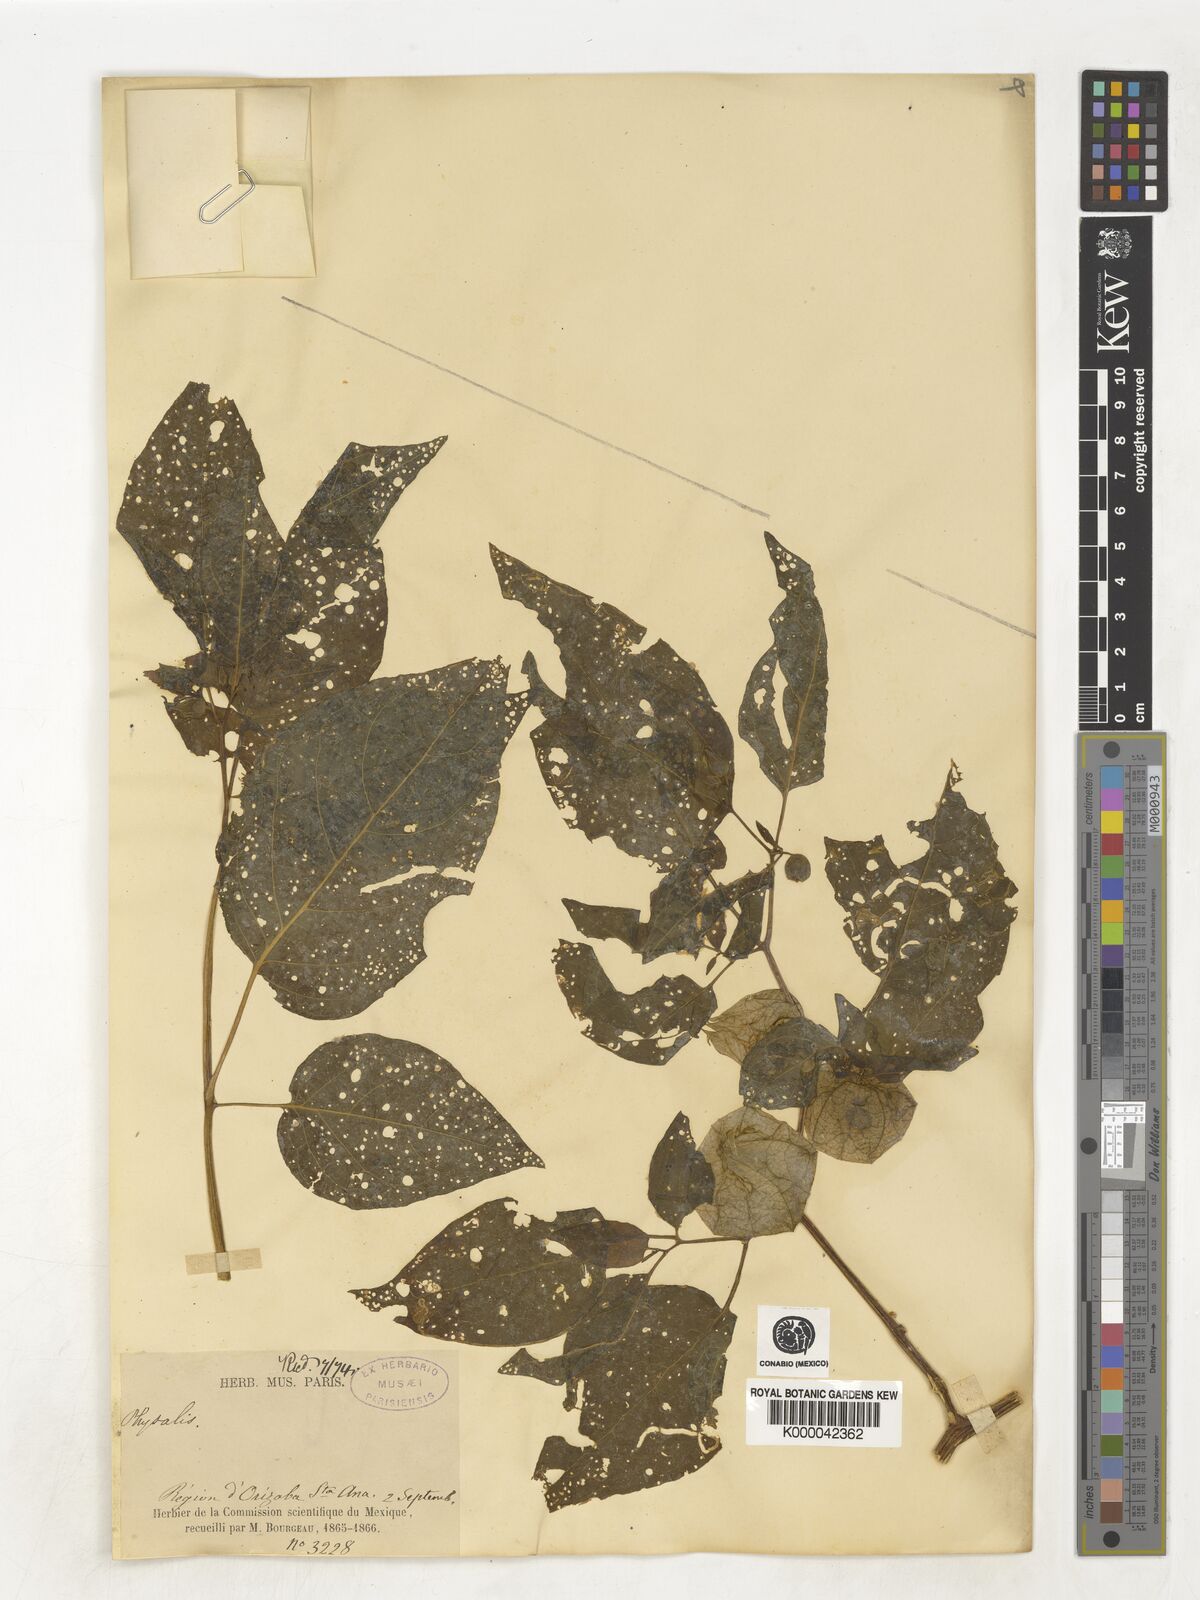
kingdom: Plantae
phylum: Tracheophyta
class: Magnoliopsida
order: Solanales
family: Solanaceae
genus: Physalis
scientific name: Physalis
